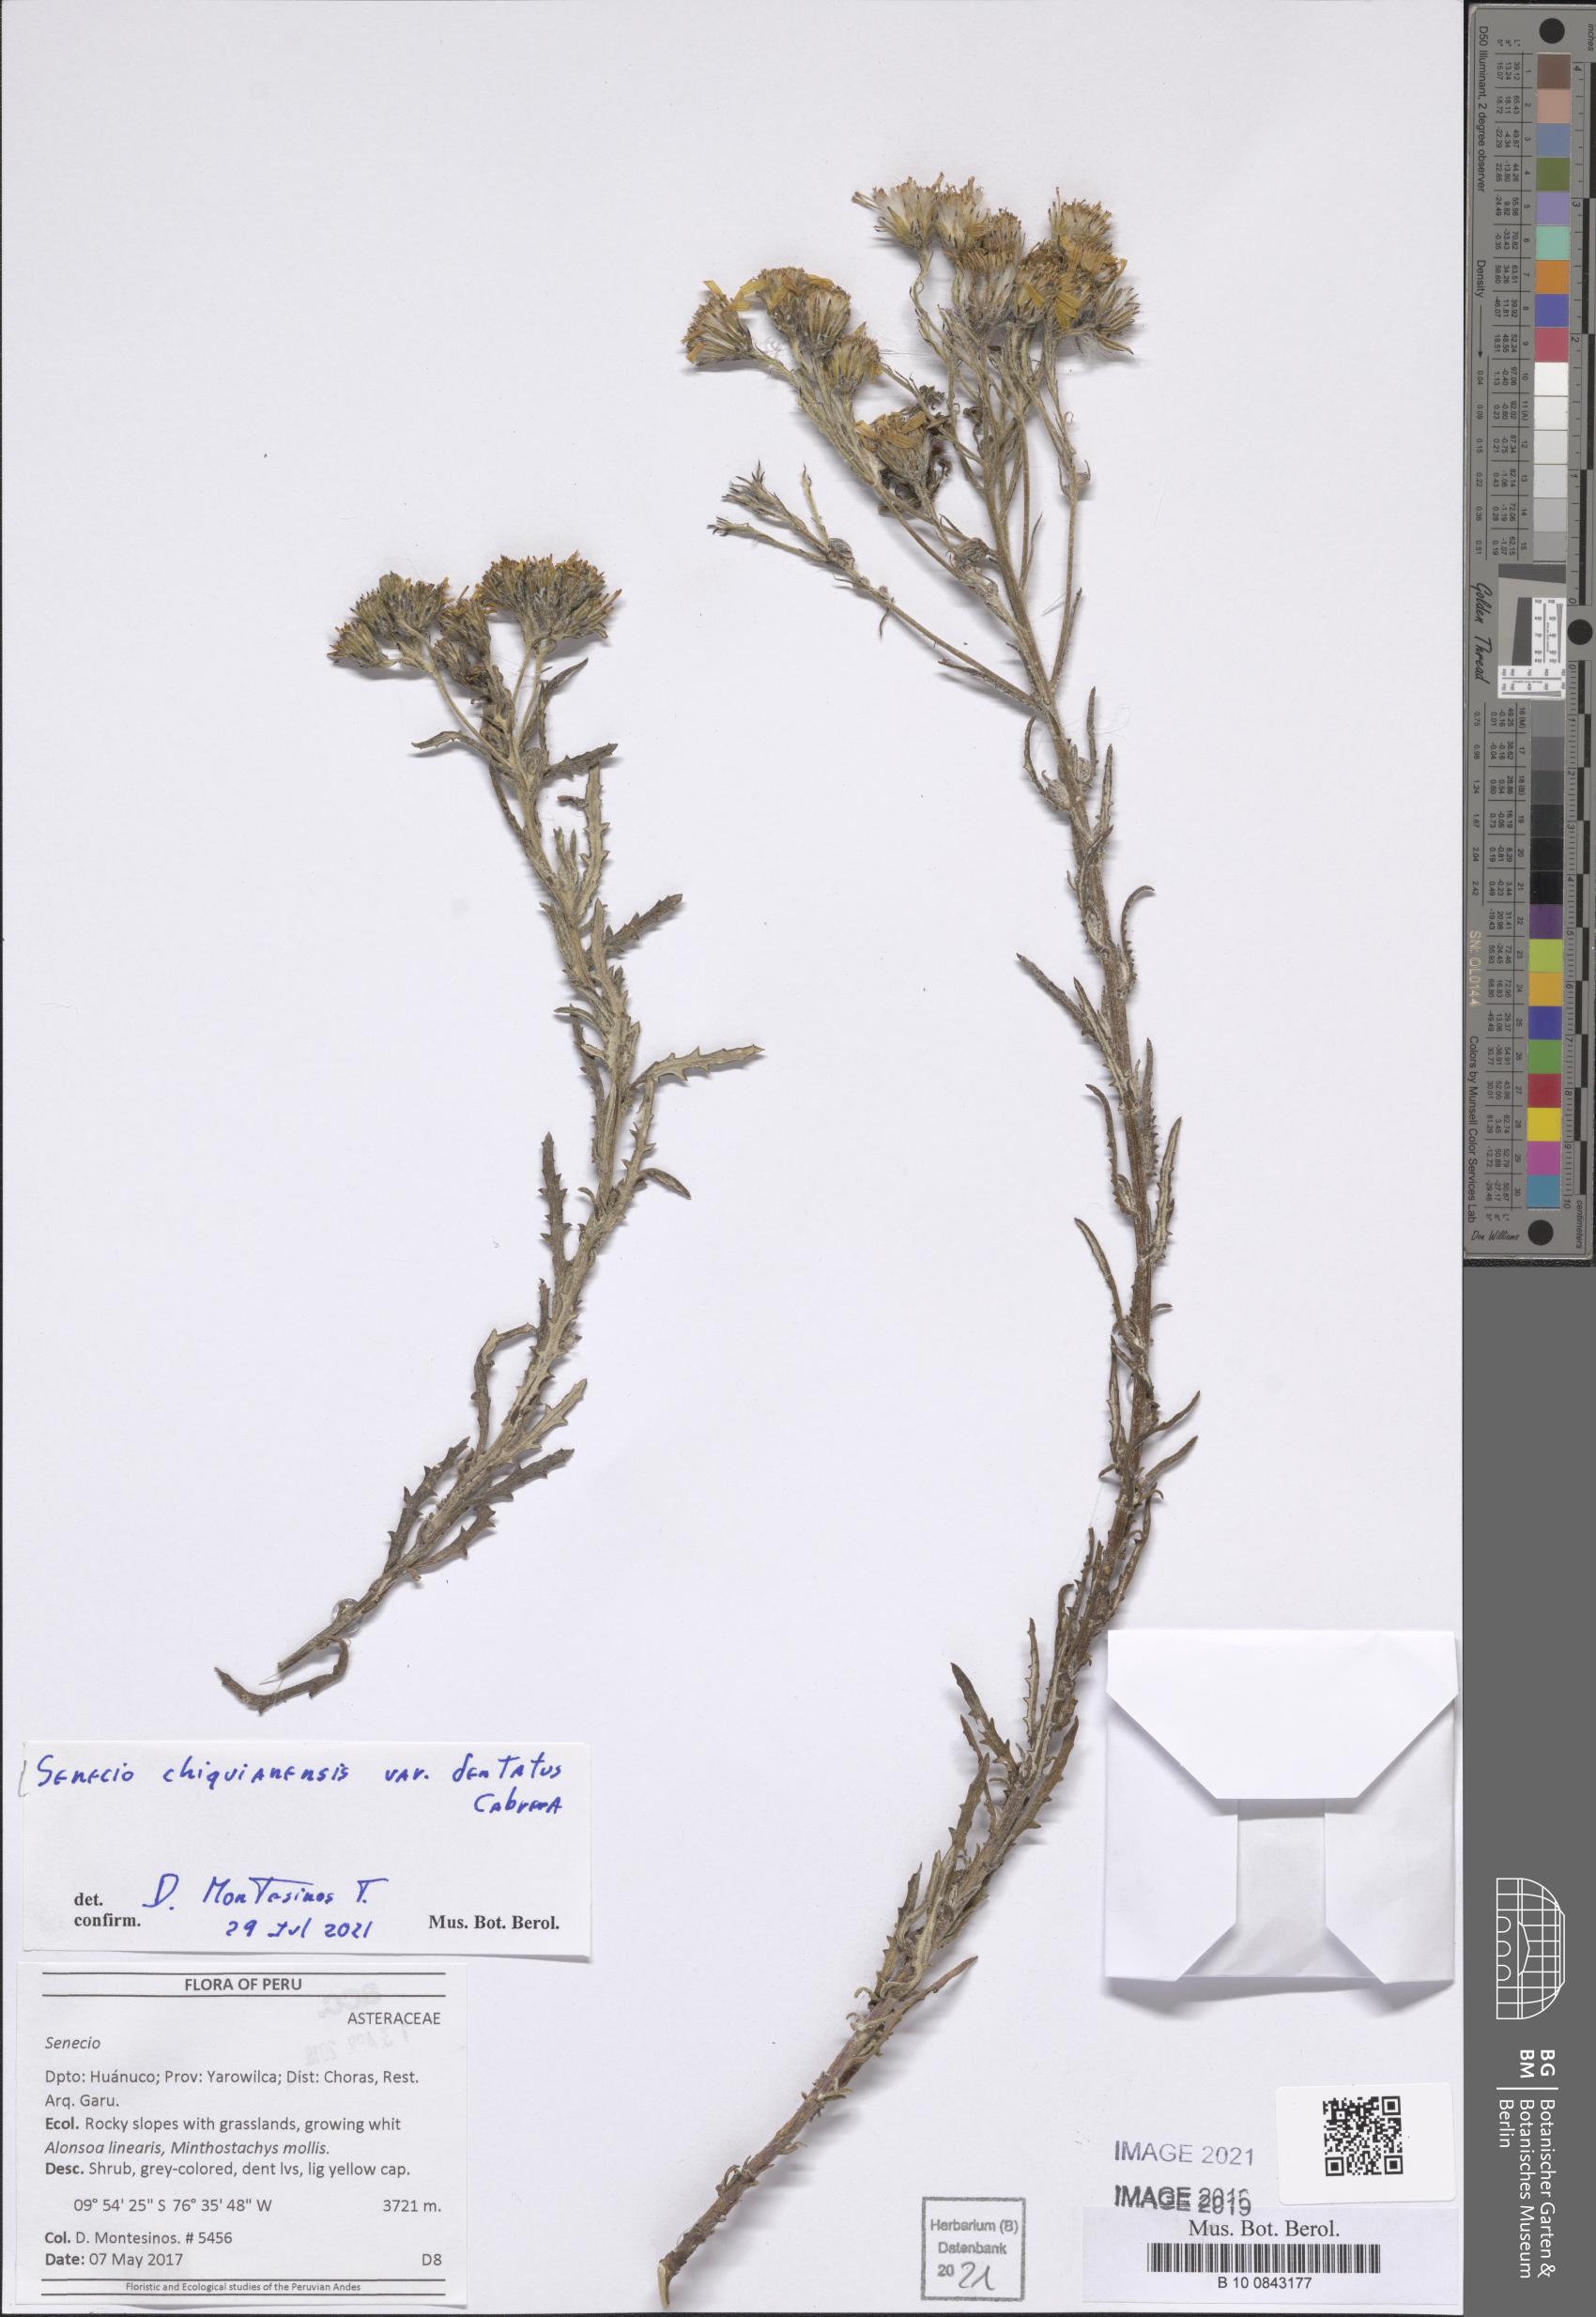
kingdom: Plantae
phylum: Tracheophyta
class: Magnoliopsida
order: Asterales
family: Asteraceae
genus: Senecio
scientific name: Senecio chiquianensis
